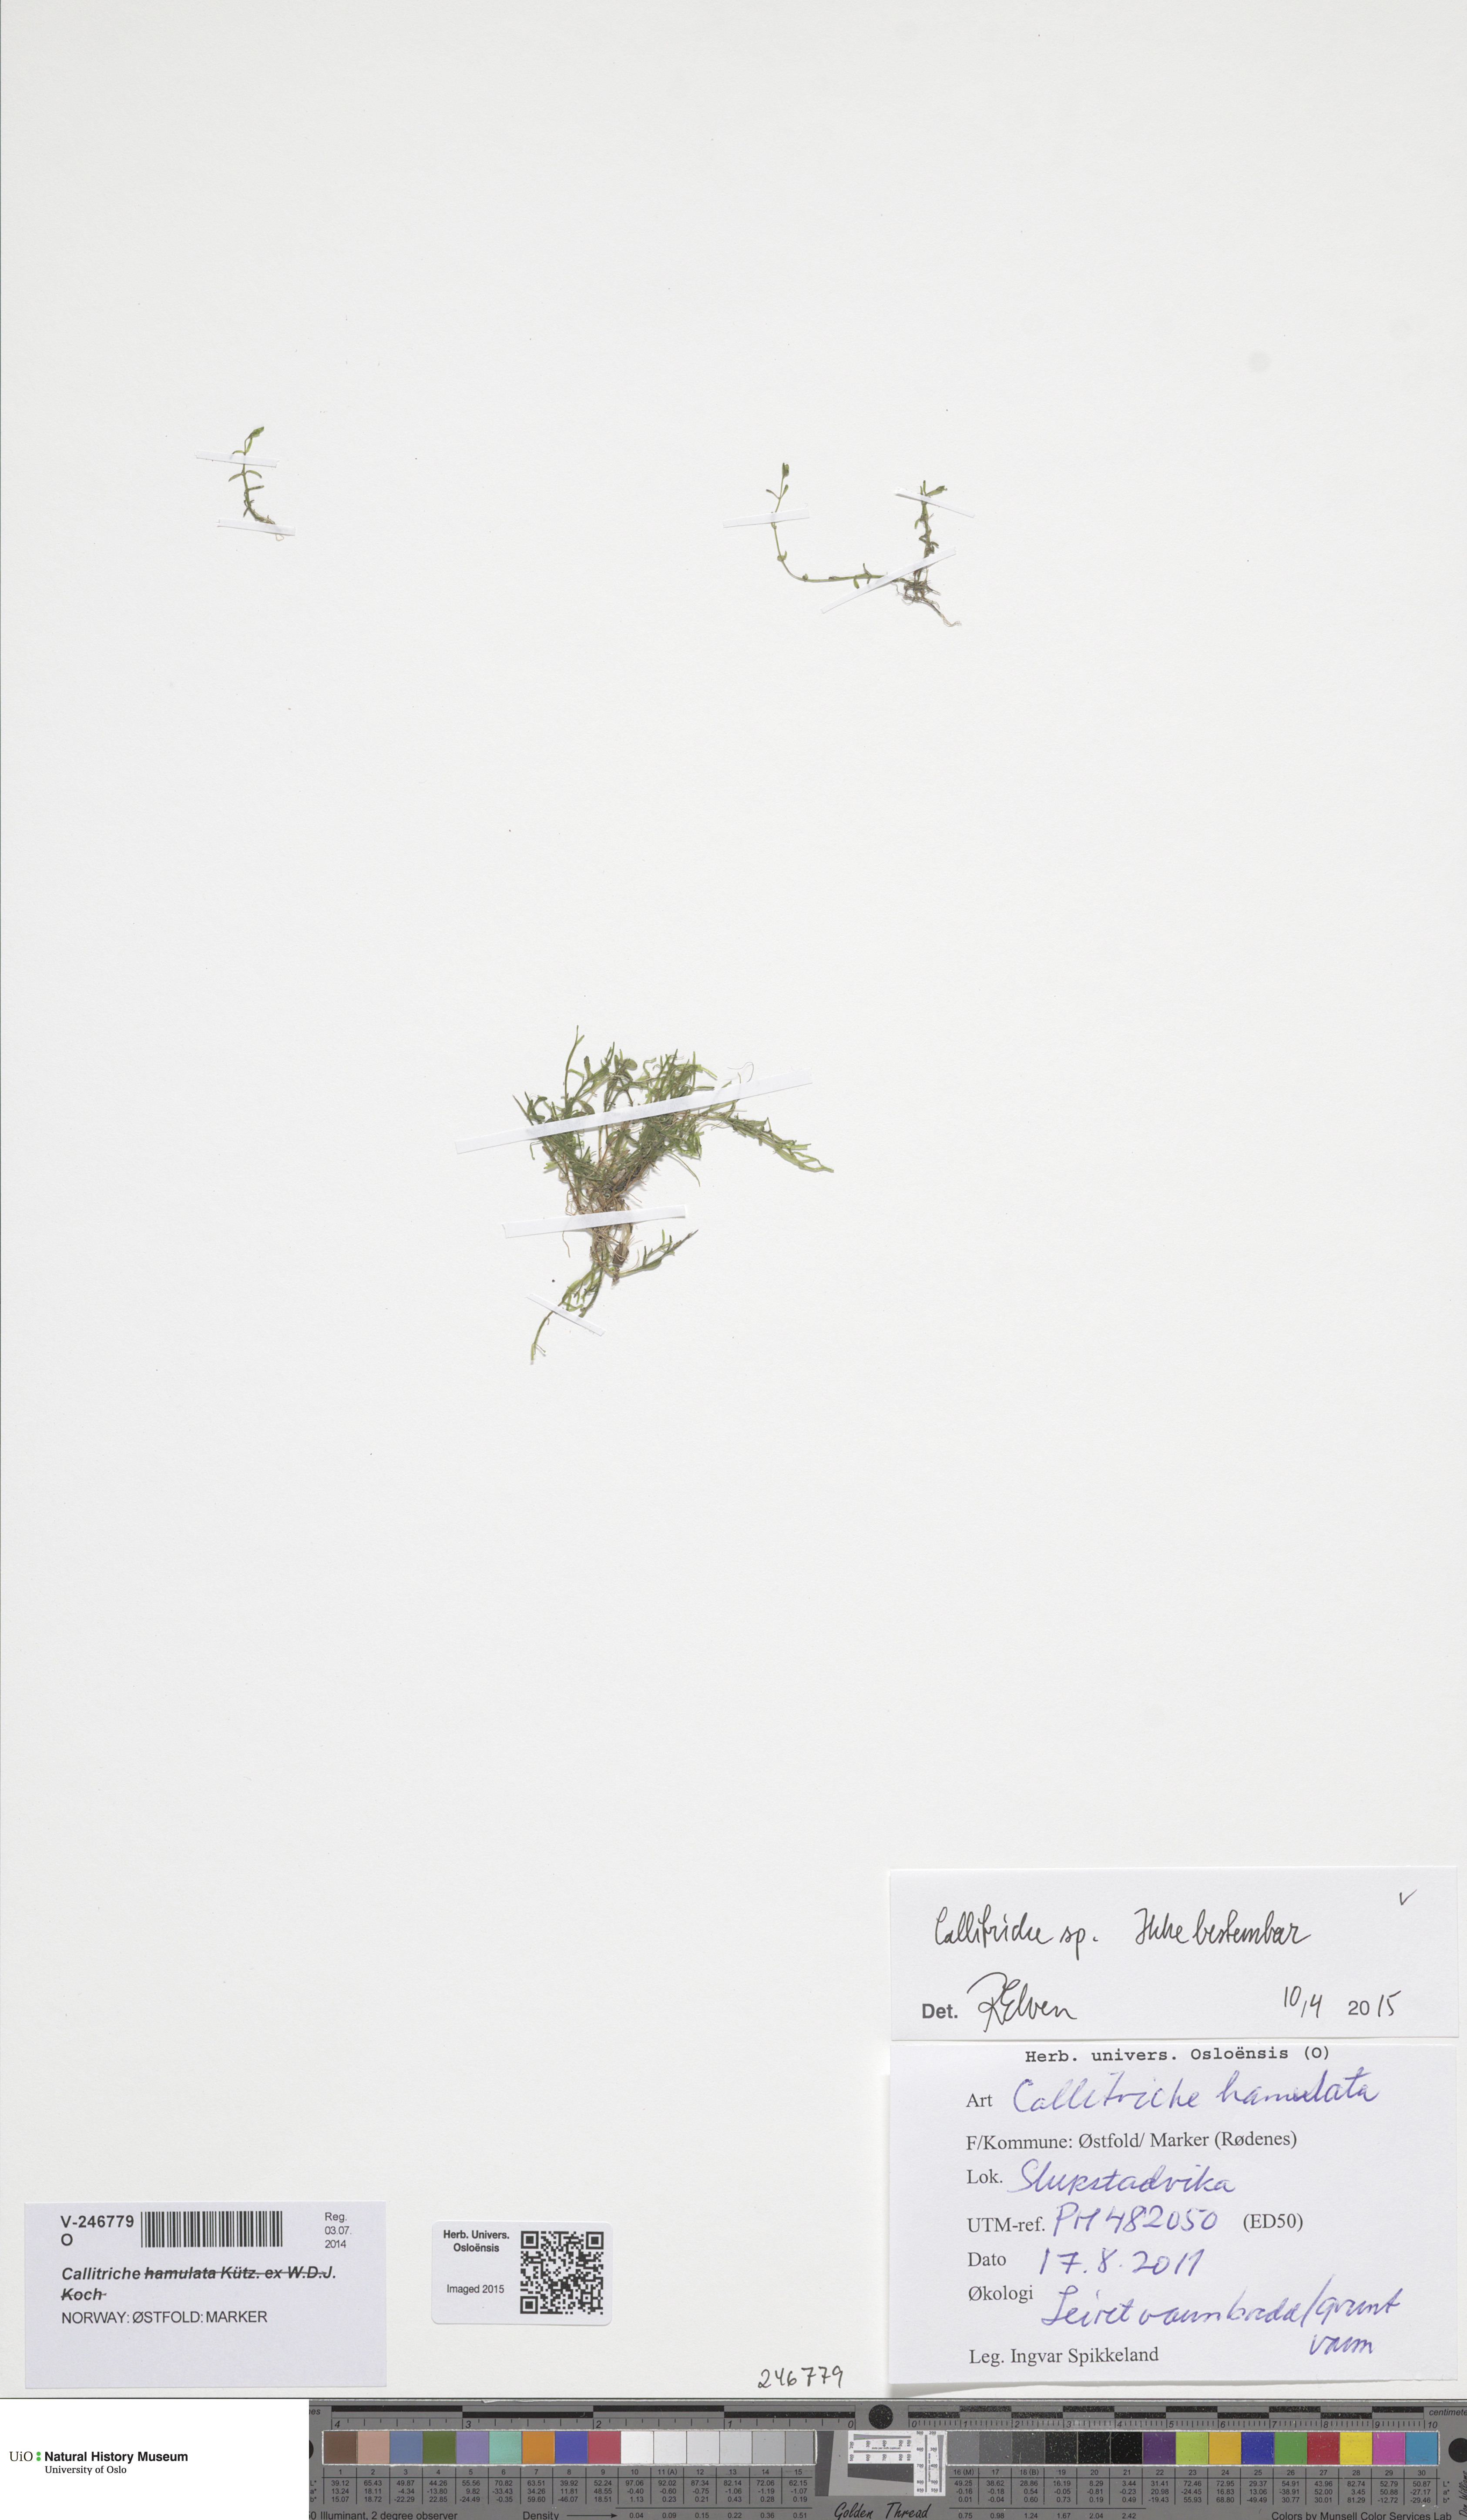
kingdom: Plantae
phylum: Tracheophyta
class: Magnoliopsida
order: Lamiales
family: Plantaginaceae
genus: Callitriche
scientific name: Callitriche
